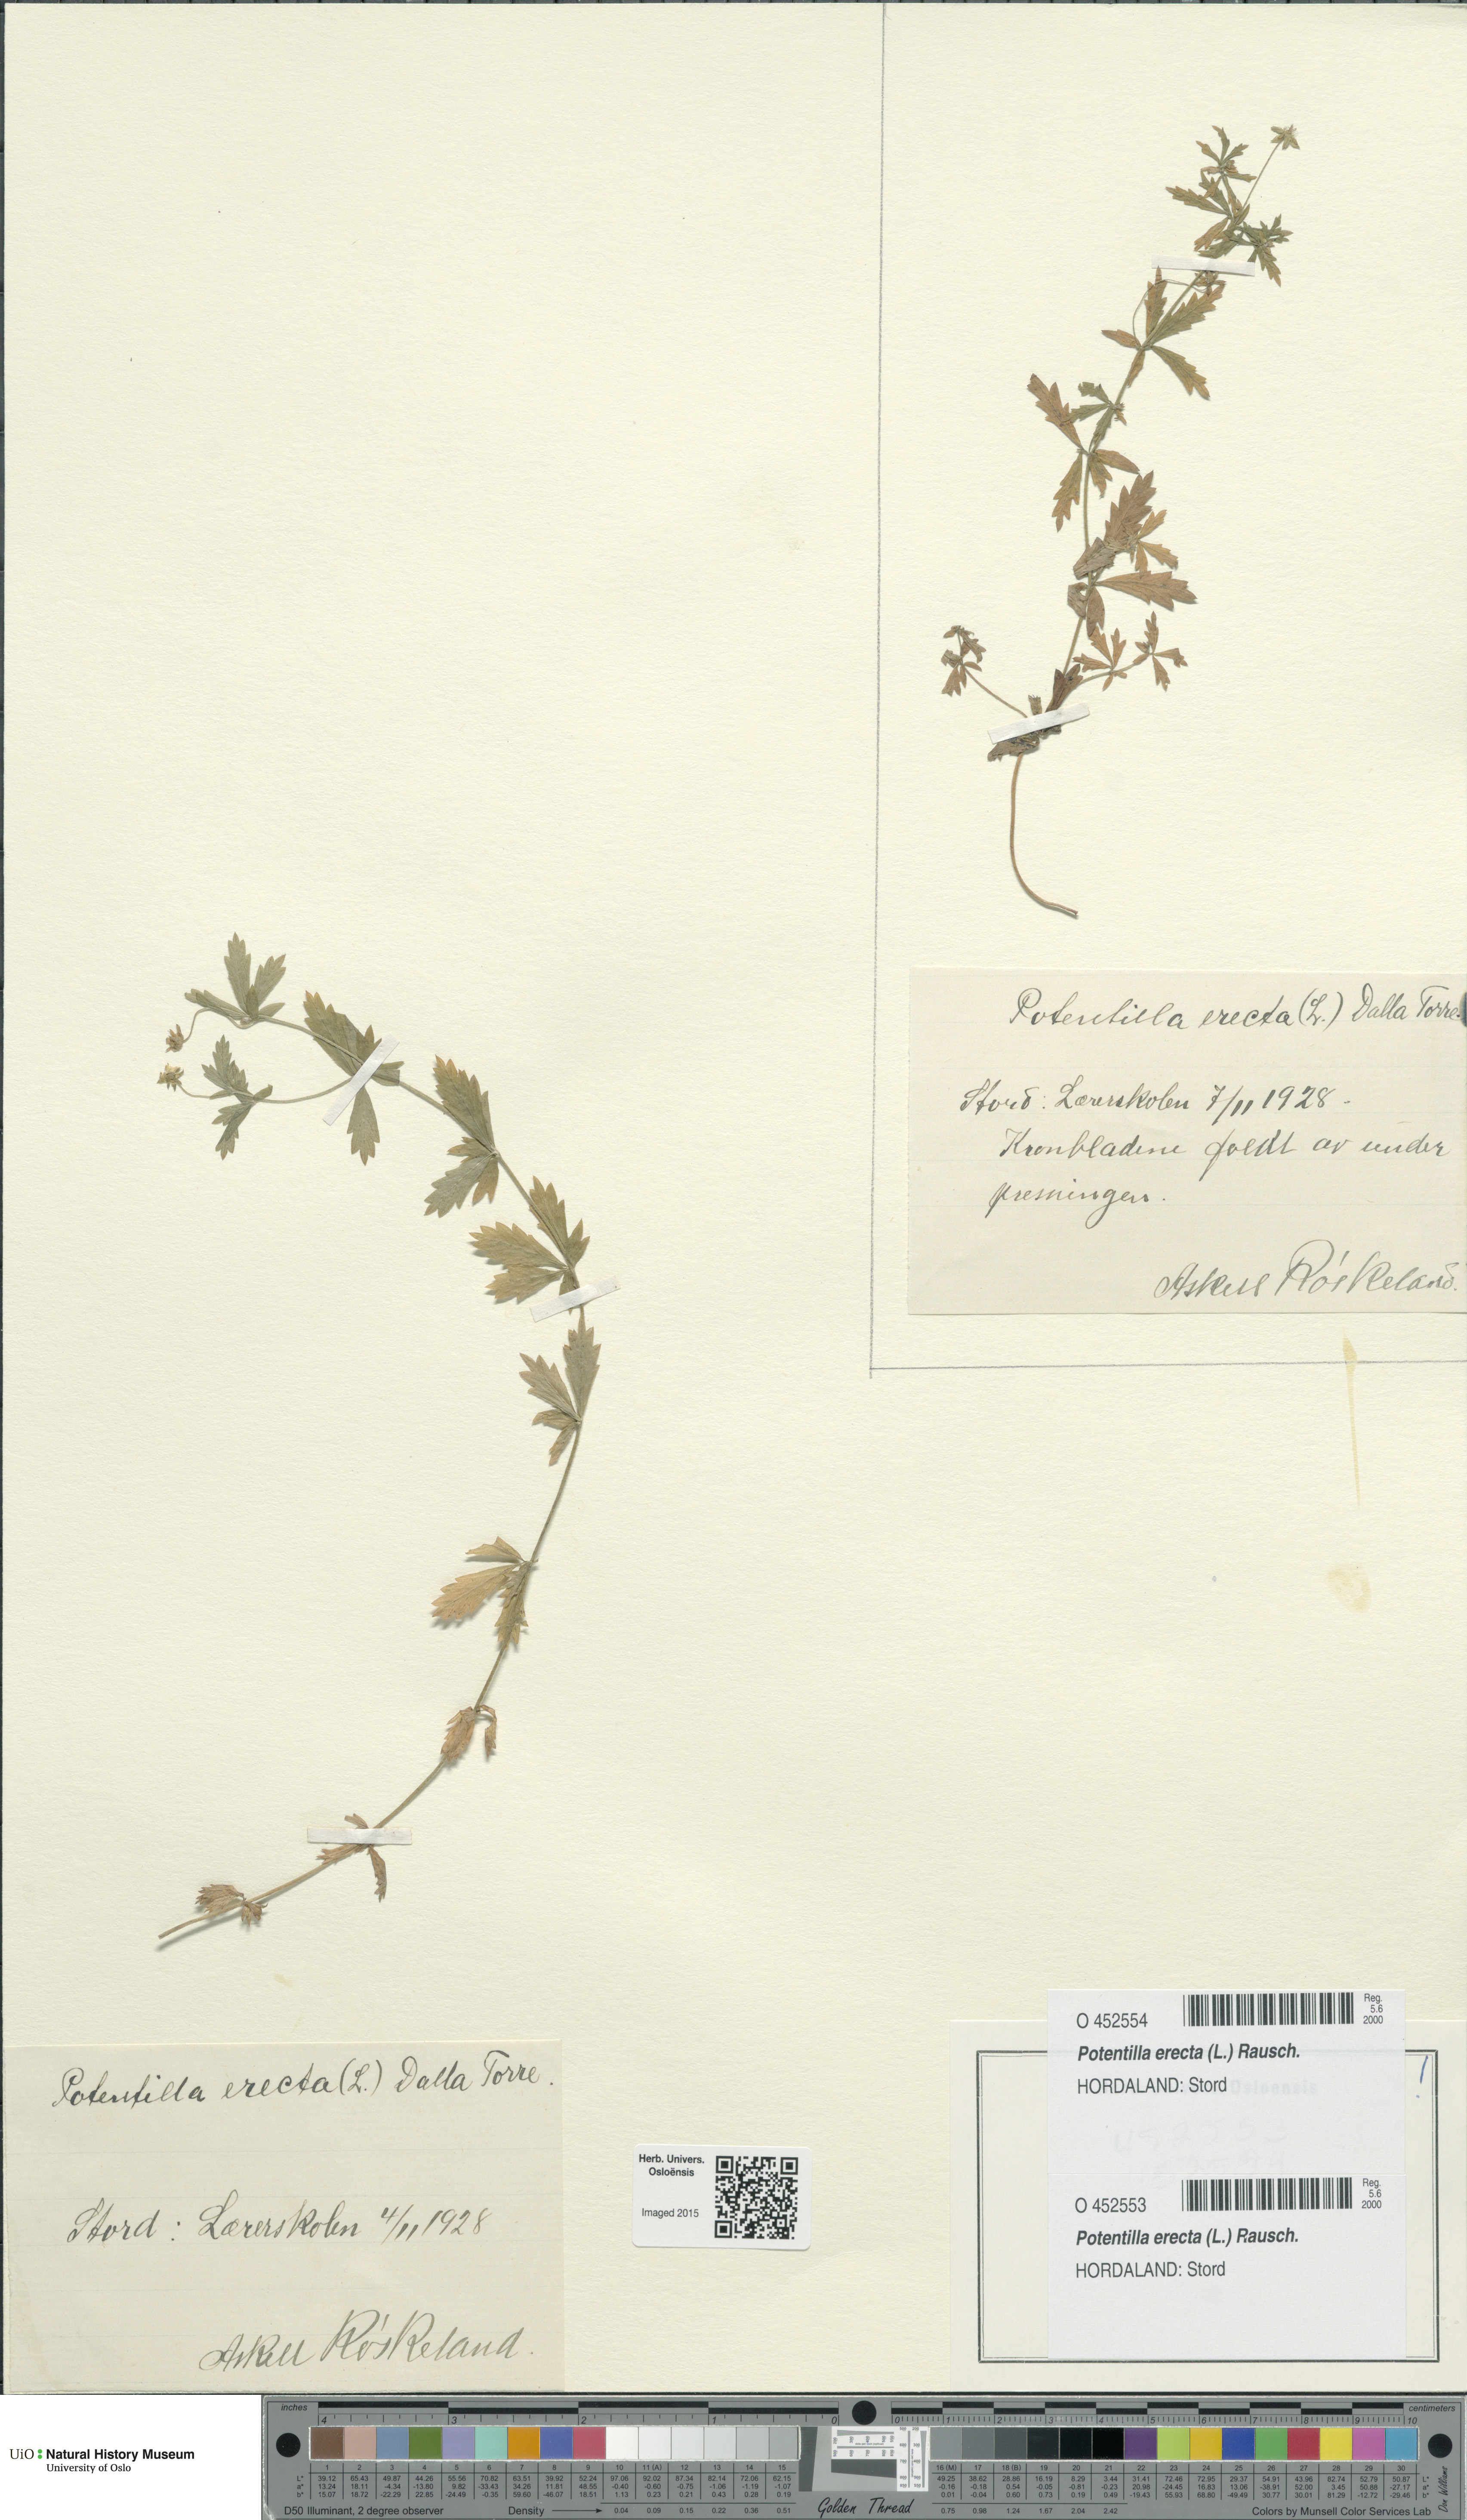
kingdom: Plantae
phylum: Tracheophyta
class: Magnoliopsida
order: Rosales
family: Rosaceae
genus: Potentilla
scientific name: Potentilla erecta
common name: Tormentil
